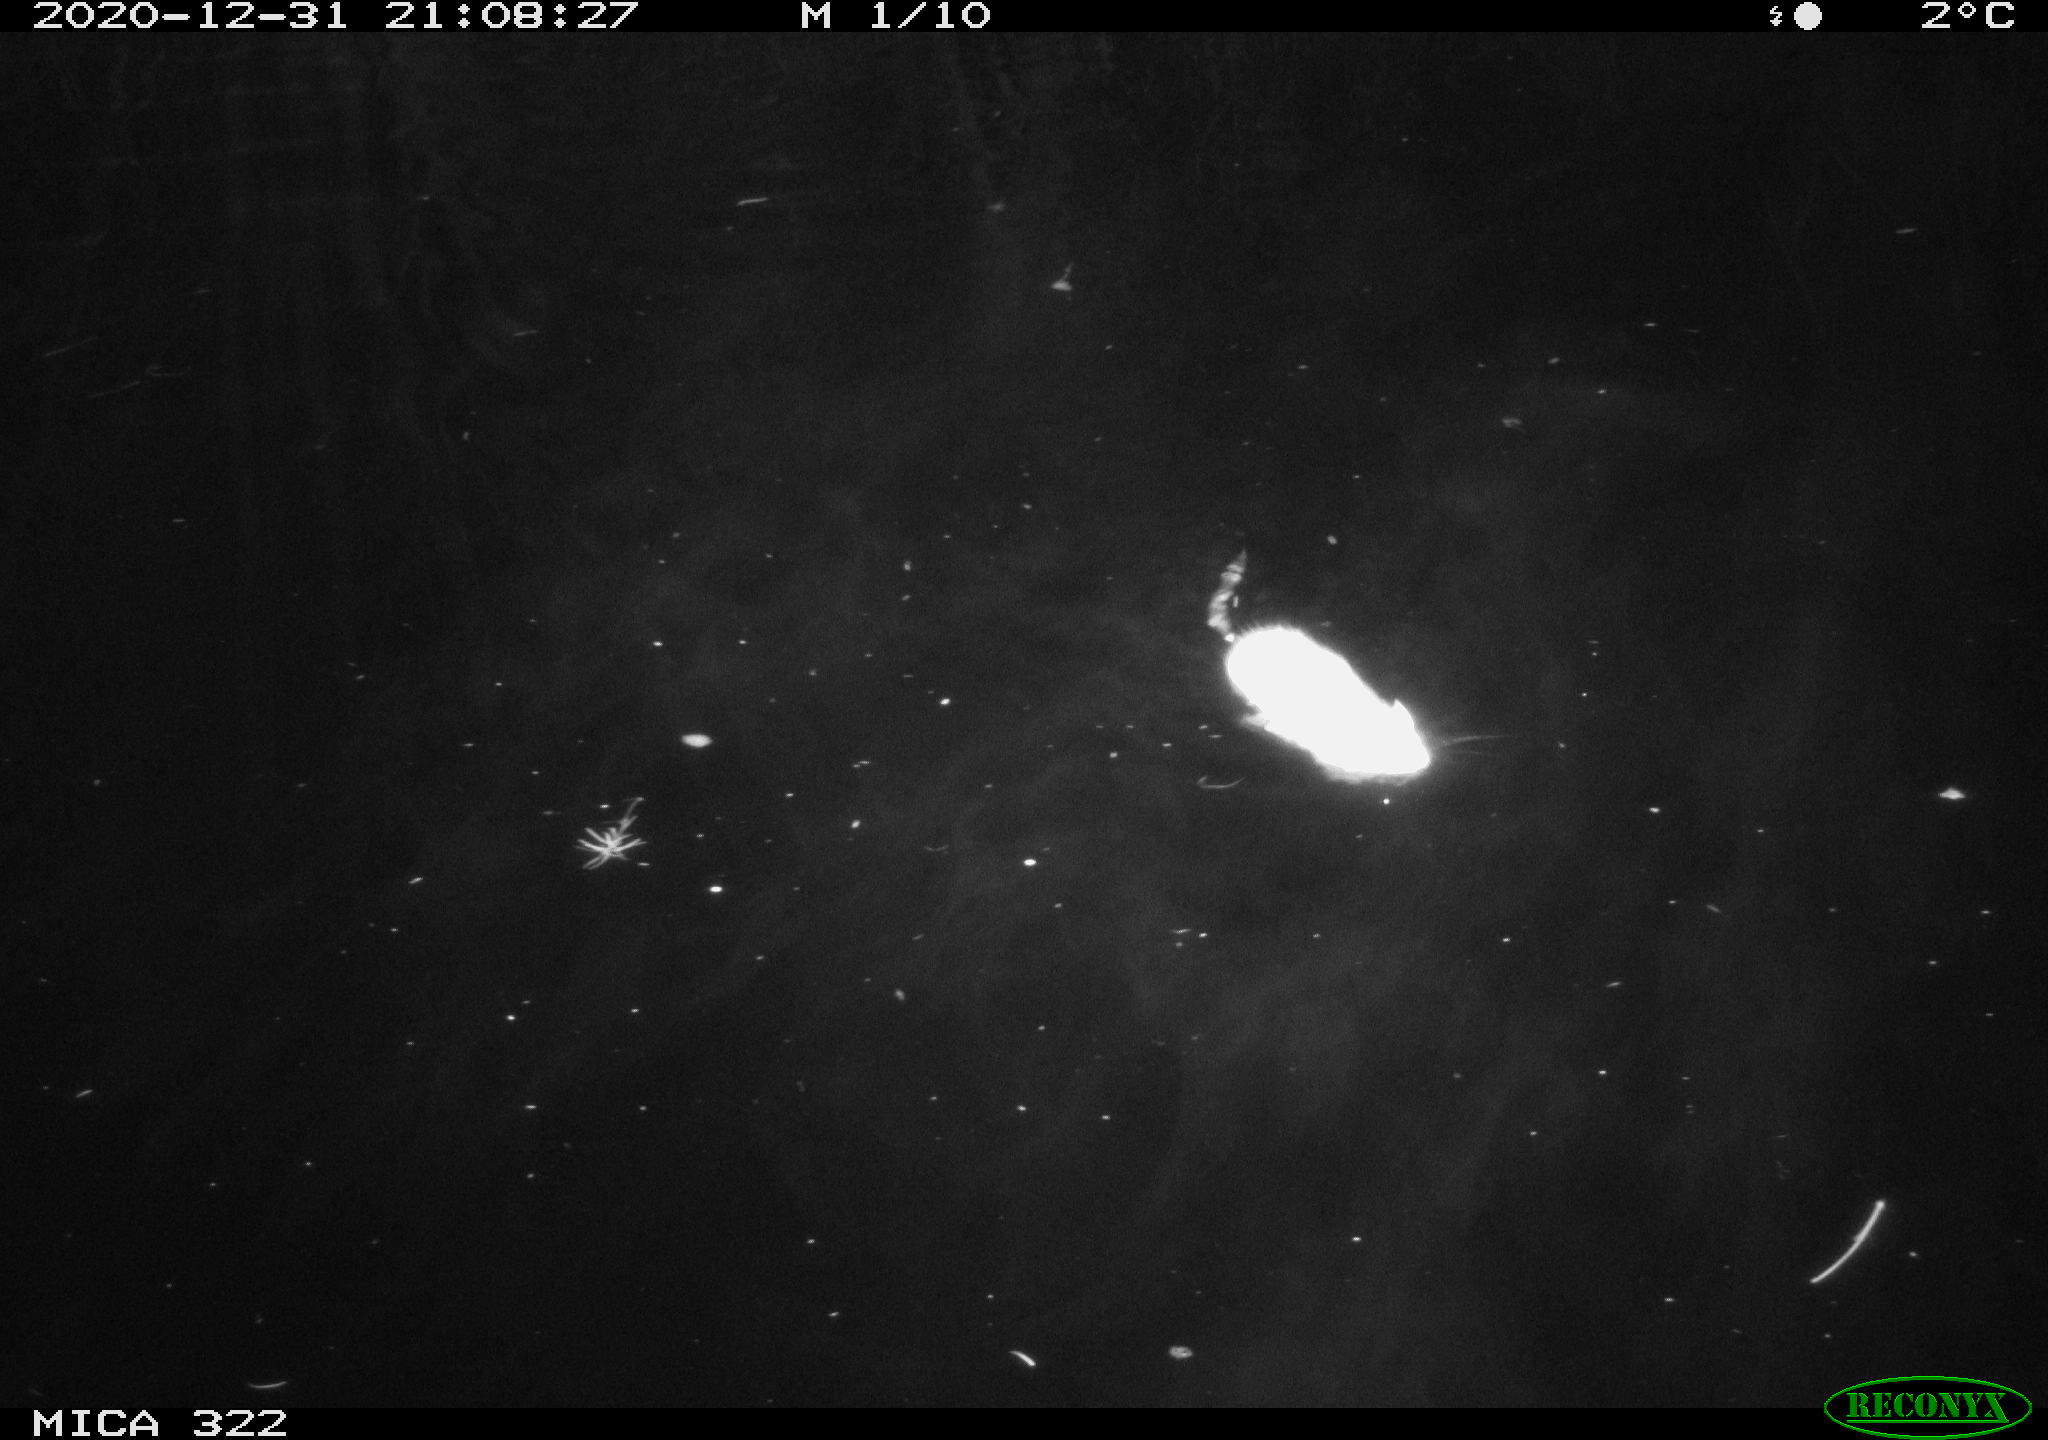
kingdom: Animalia
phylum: Chordata
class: Mammalia
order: Rodentia
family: Muridae
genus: Rattus
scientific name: Rattus norvegicus
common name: Brown rat
